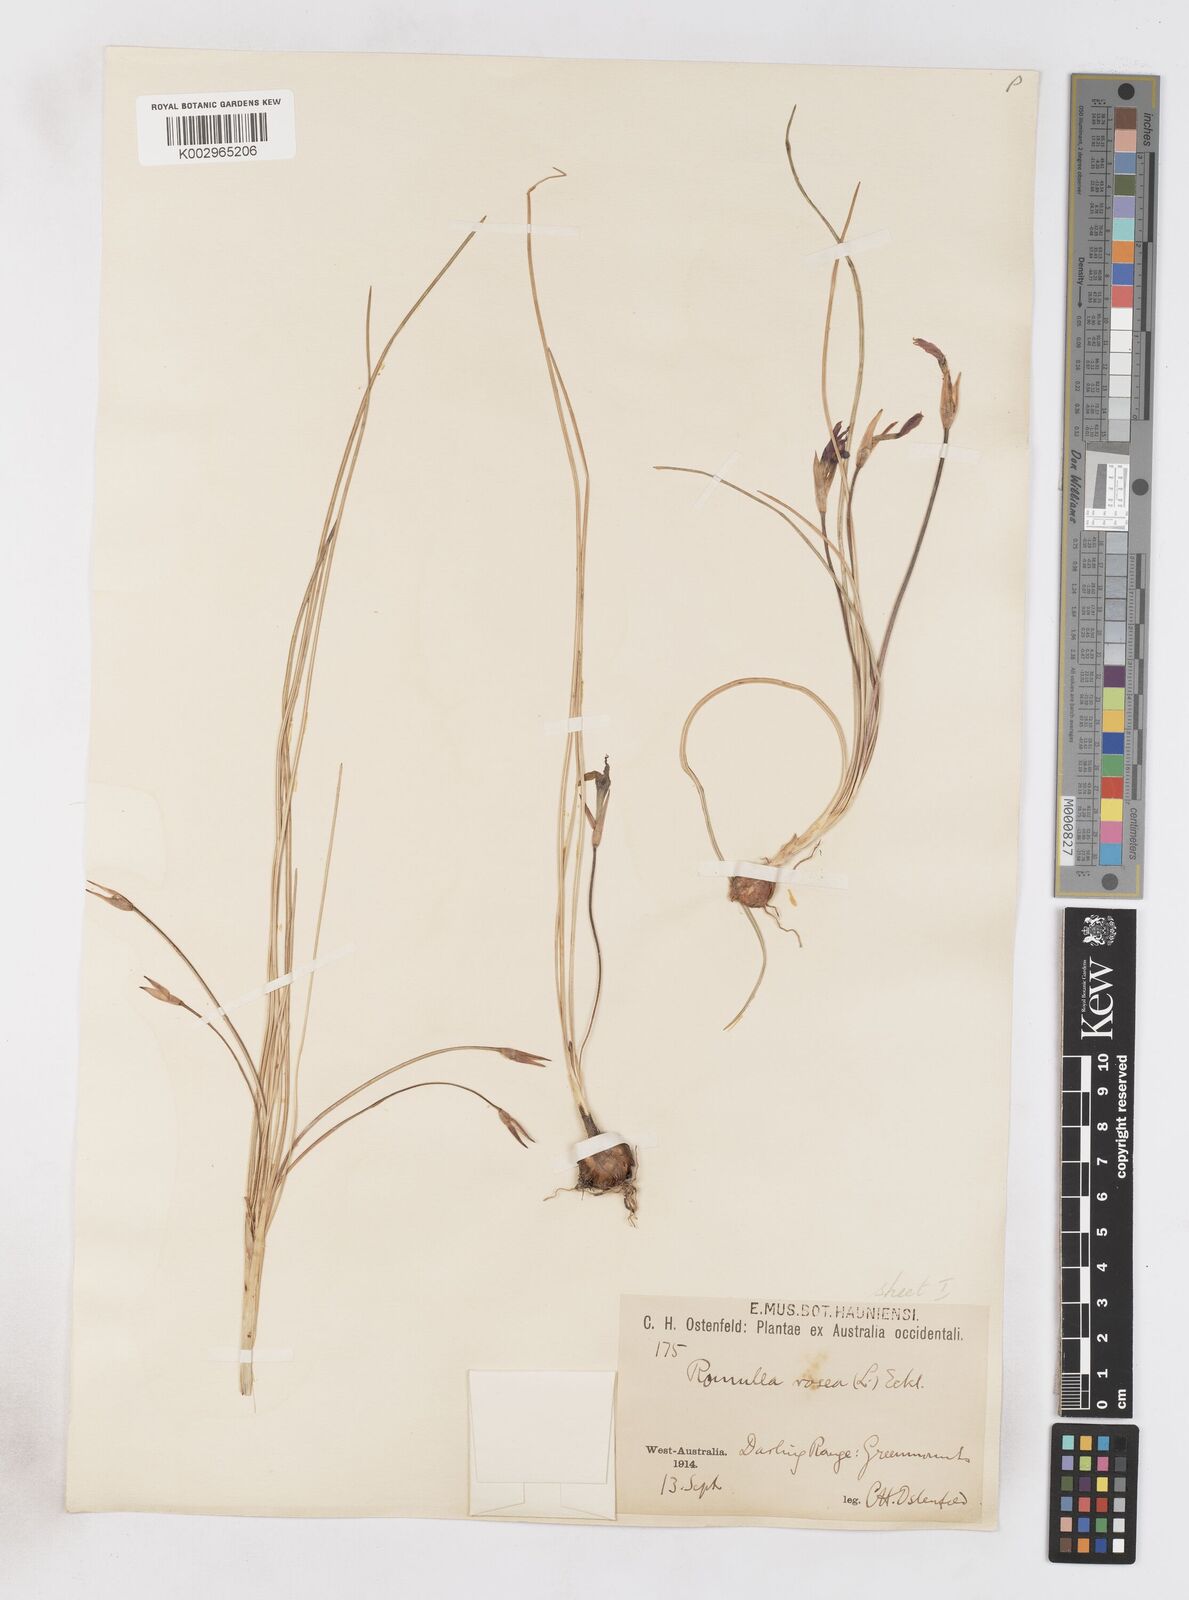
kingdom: Plantae
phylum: Tracheophyta
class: Liliopsida
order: Asparagales
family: Iridaceae
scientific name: Iridaceae
